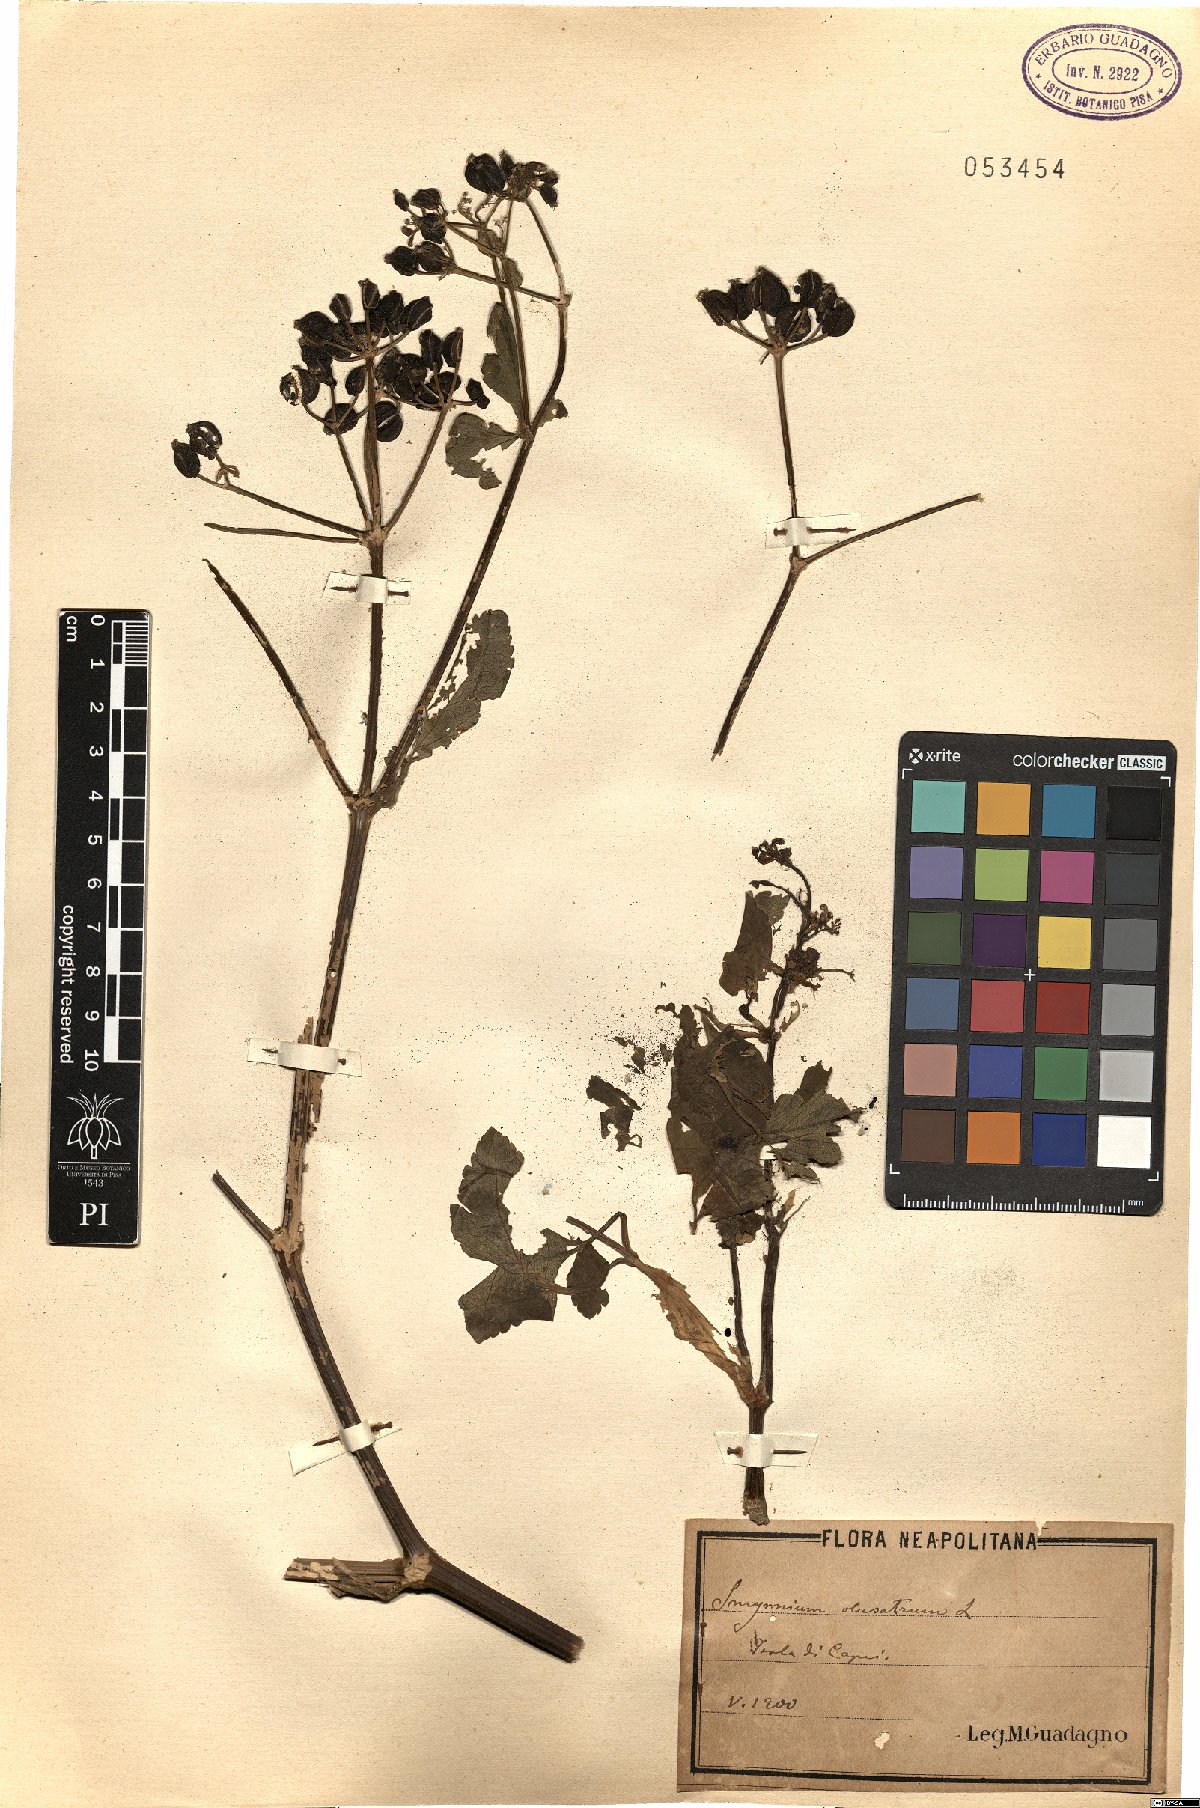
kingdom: Plantae
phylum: Tracheophyta
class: Magnoliopsida
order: Apiales
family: Apiaceae
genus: Smyrnium
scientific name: Smyrnium olusatrum
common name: Alexanders
